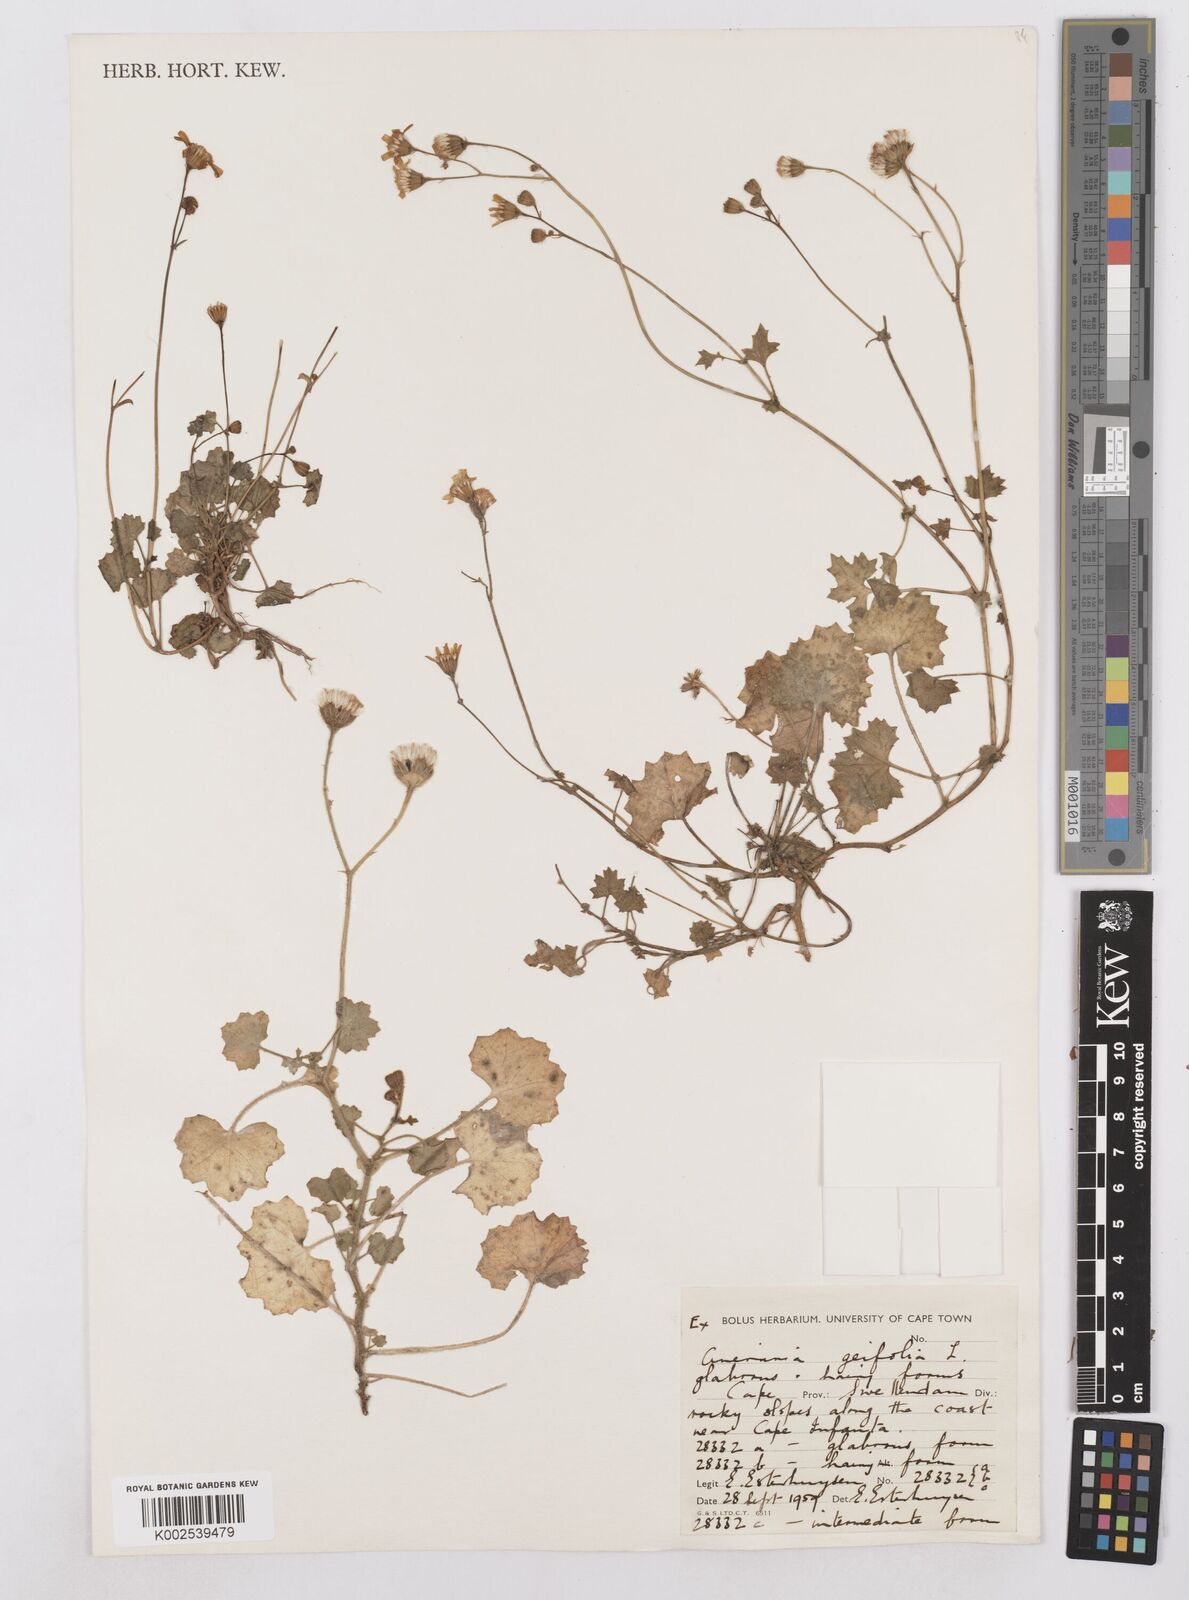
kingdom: Plantae
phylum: Tracheophyta
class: Magnoliopsida
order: Asterales
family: Asteraceae
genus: Cineraria
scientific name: Cineraria geifolia
